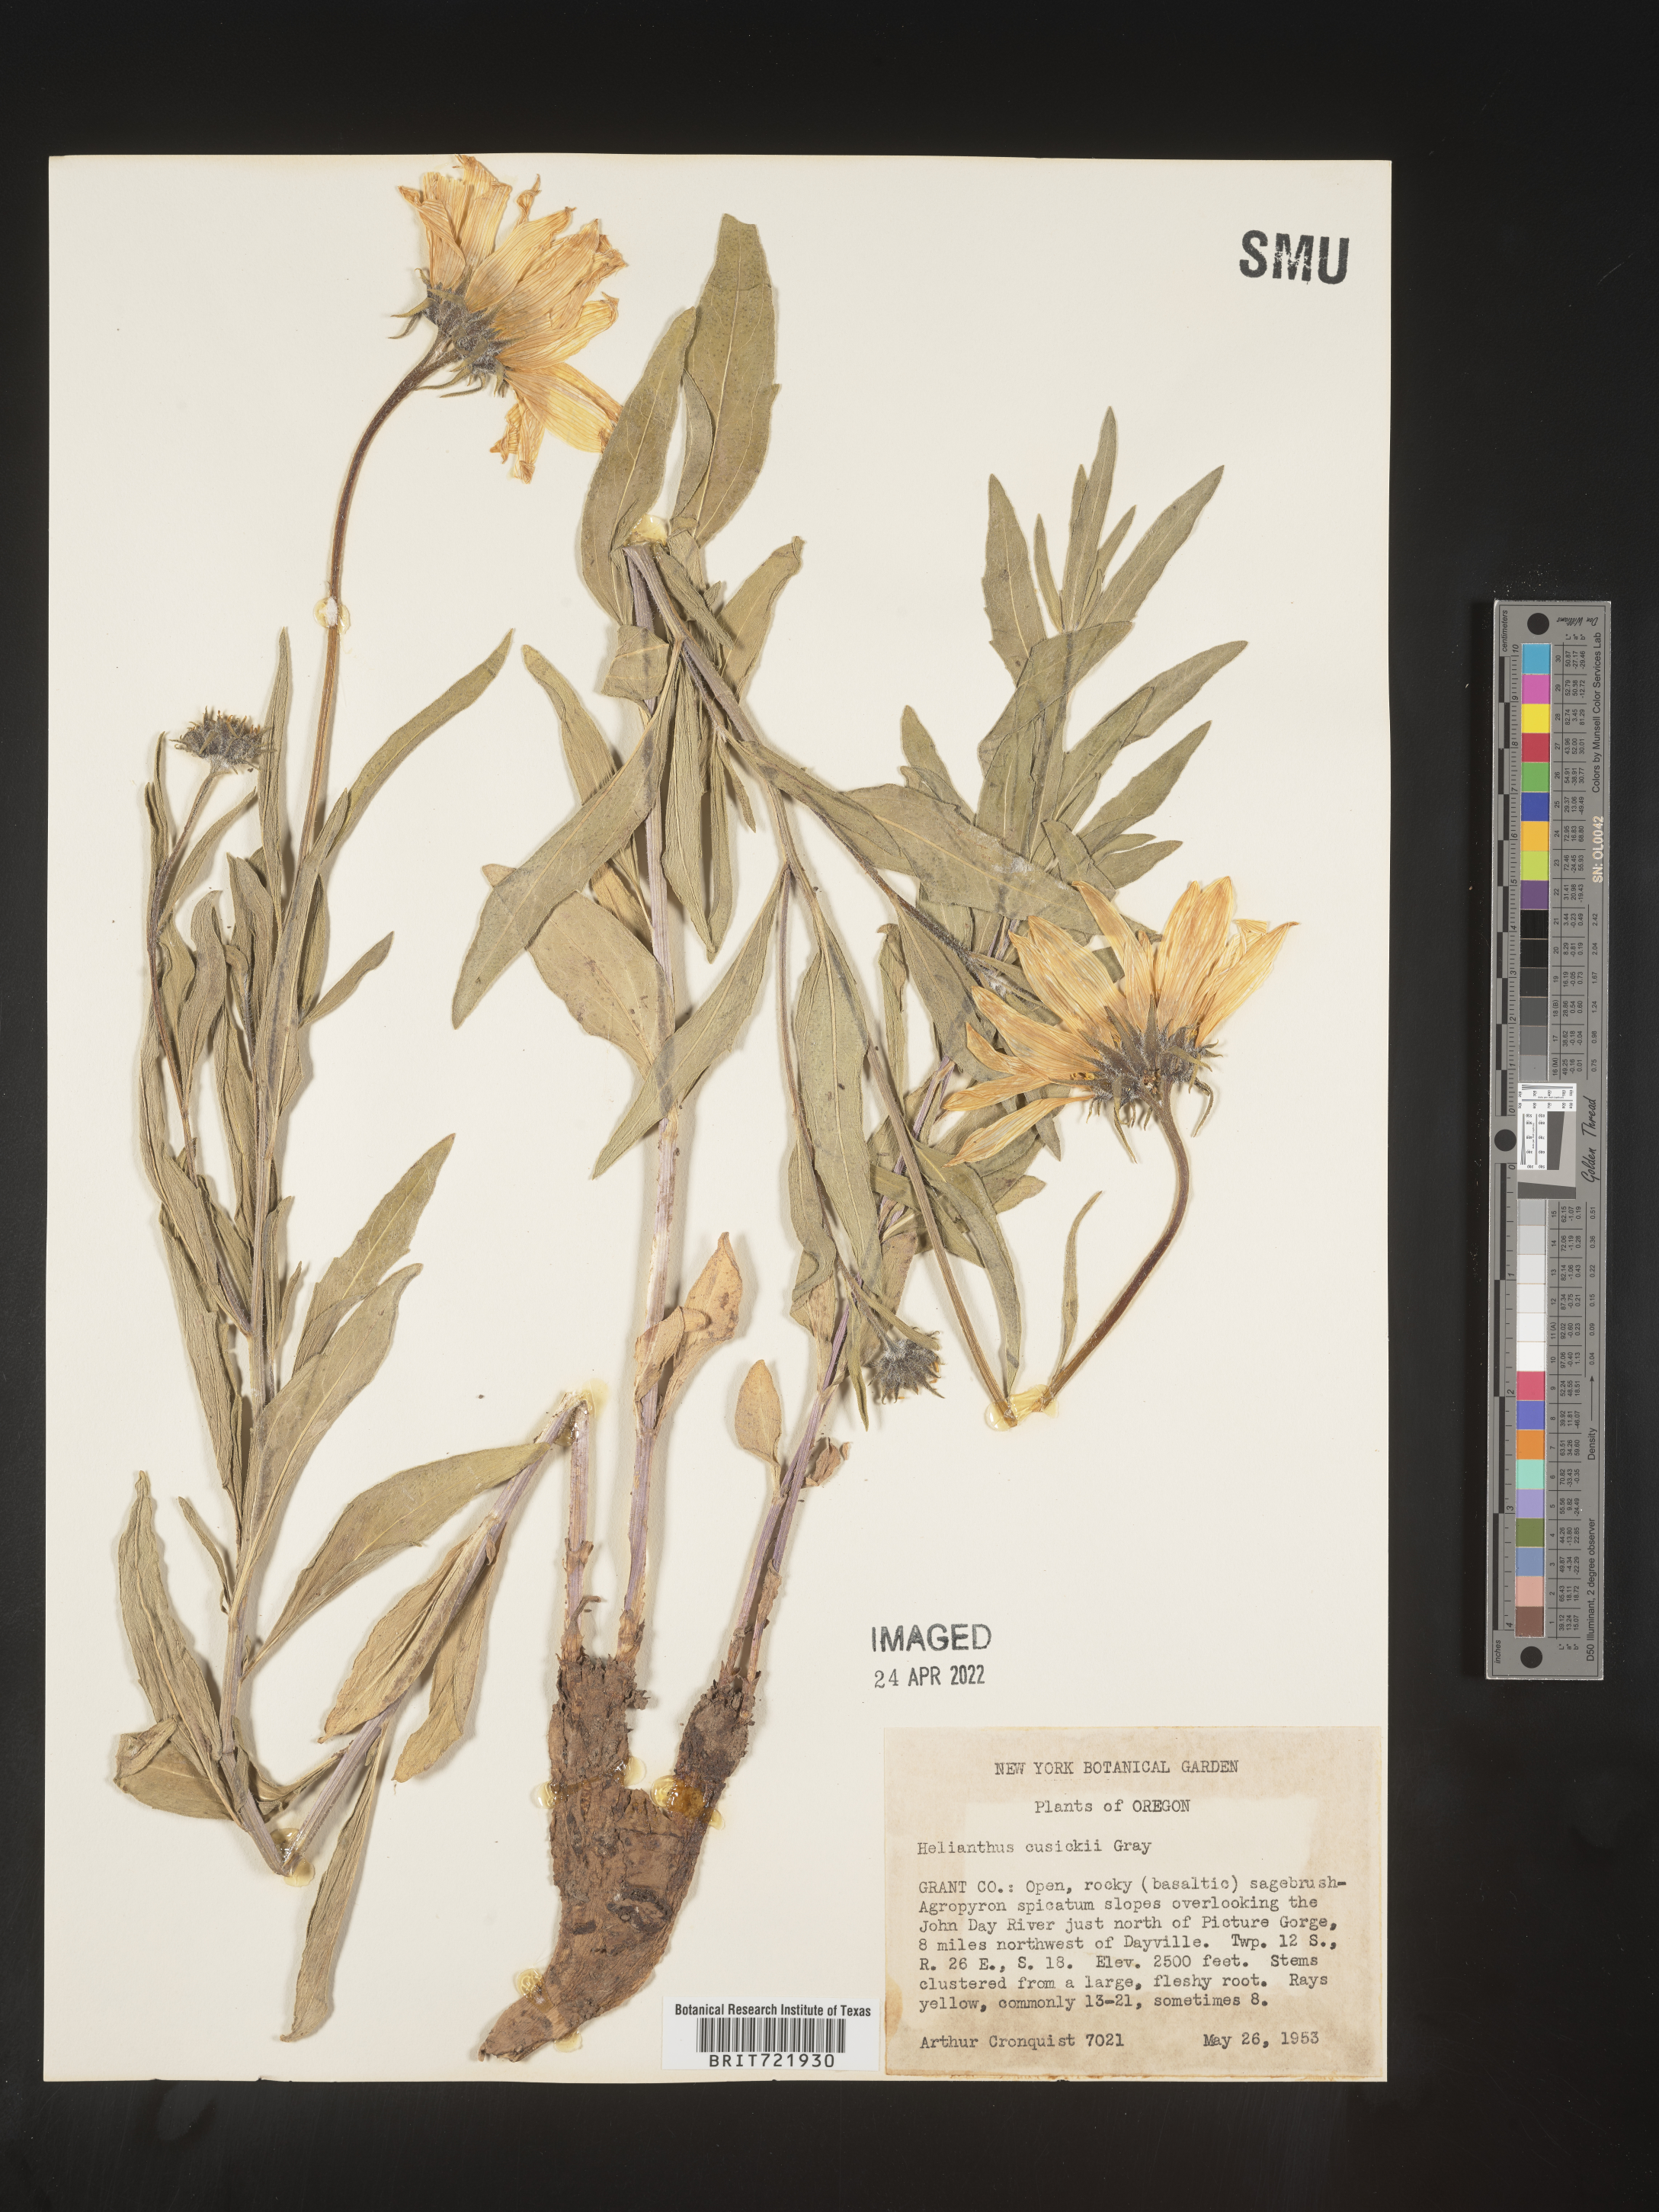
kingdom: Plantae
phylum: Tracheophyta
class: Magnoliopsida
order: Asterales
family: Asteraceae
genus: Helianthus
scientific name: Helianthus cusickii
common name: Cusick's sunflower
